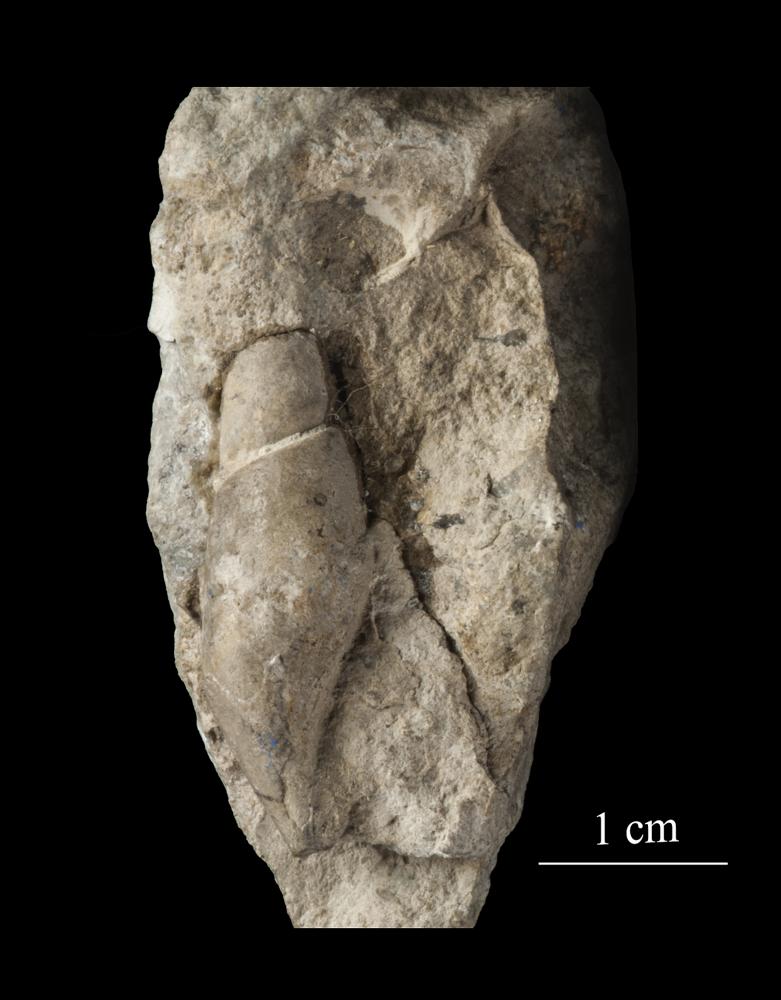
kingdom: Animalia
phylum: Mollusca
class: Gastropoda
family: Subulitidae
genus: Subulites
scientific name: Subulites subula
